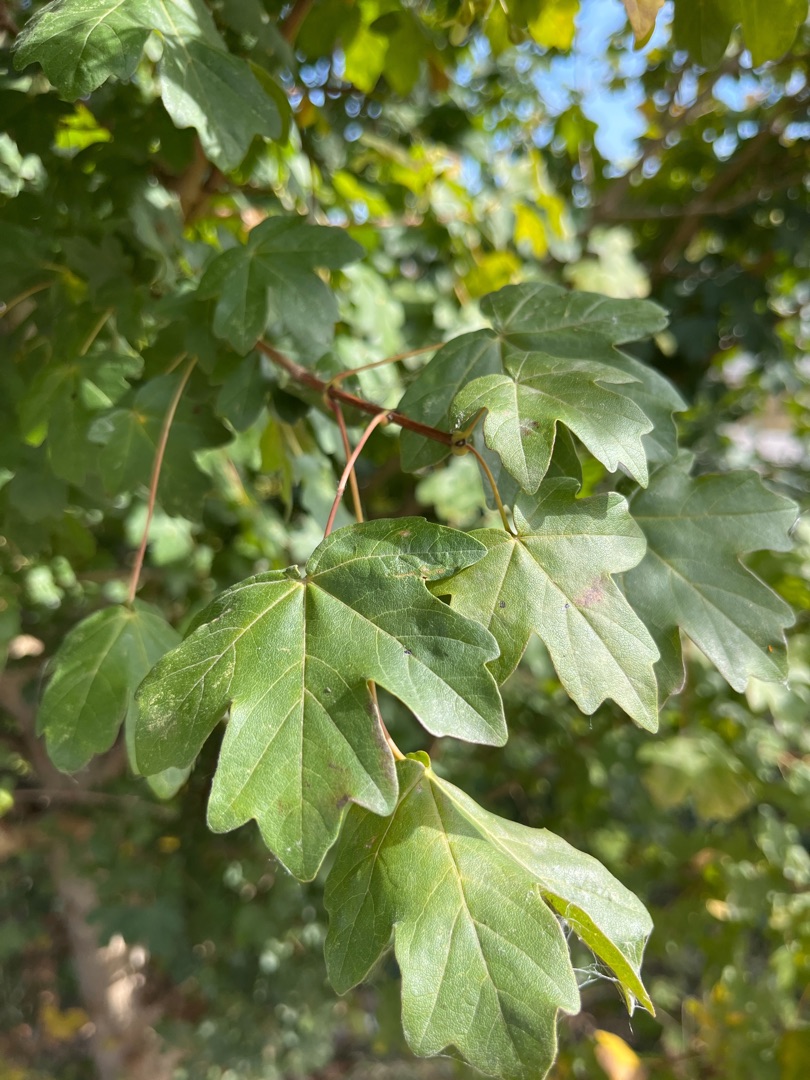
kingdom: Plantae
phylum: Tracheophyta
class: Magnoliopsida
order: Sapindales
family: Sapindaceae
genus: Acer
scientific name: Acer campestre
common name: Navr
